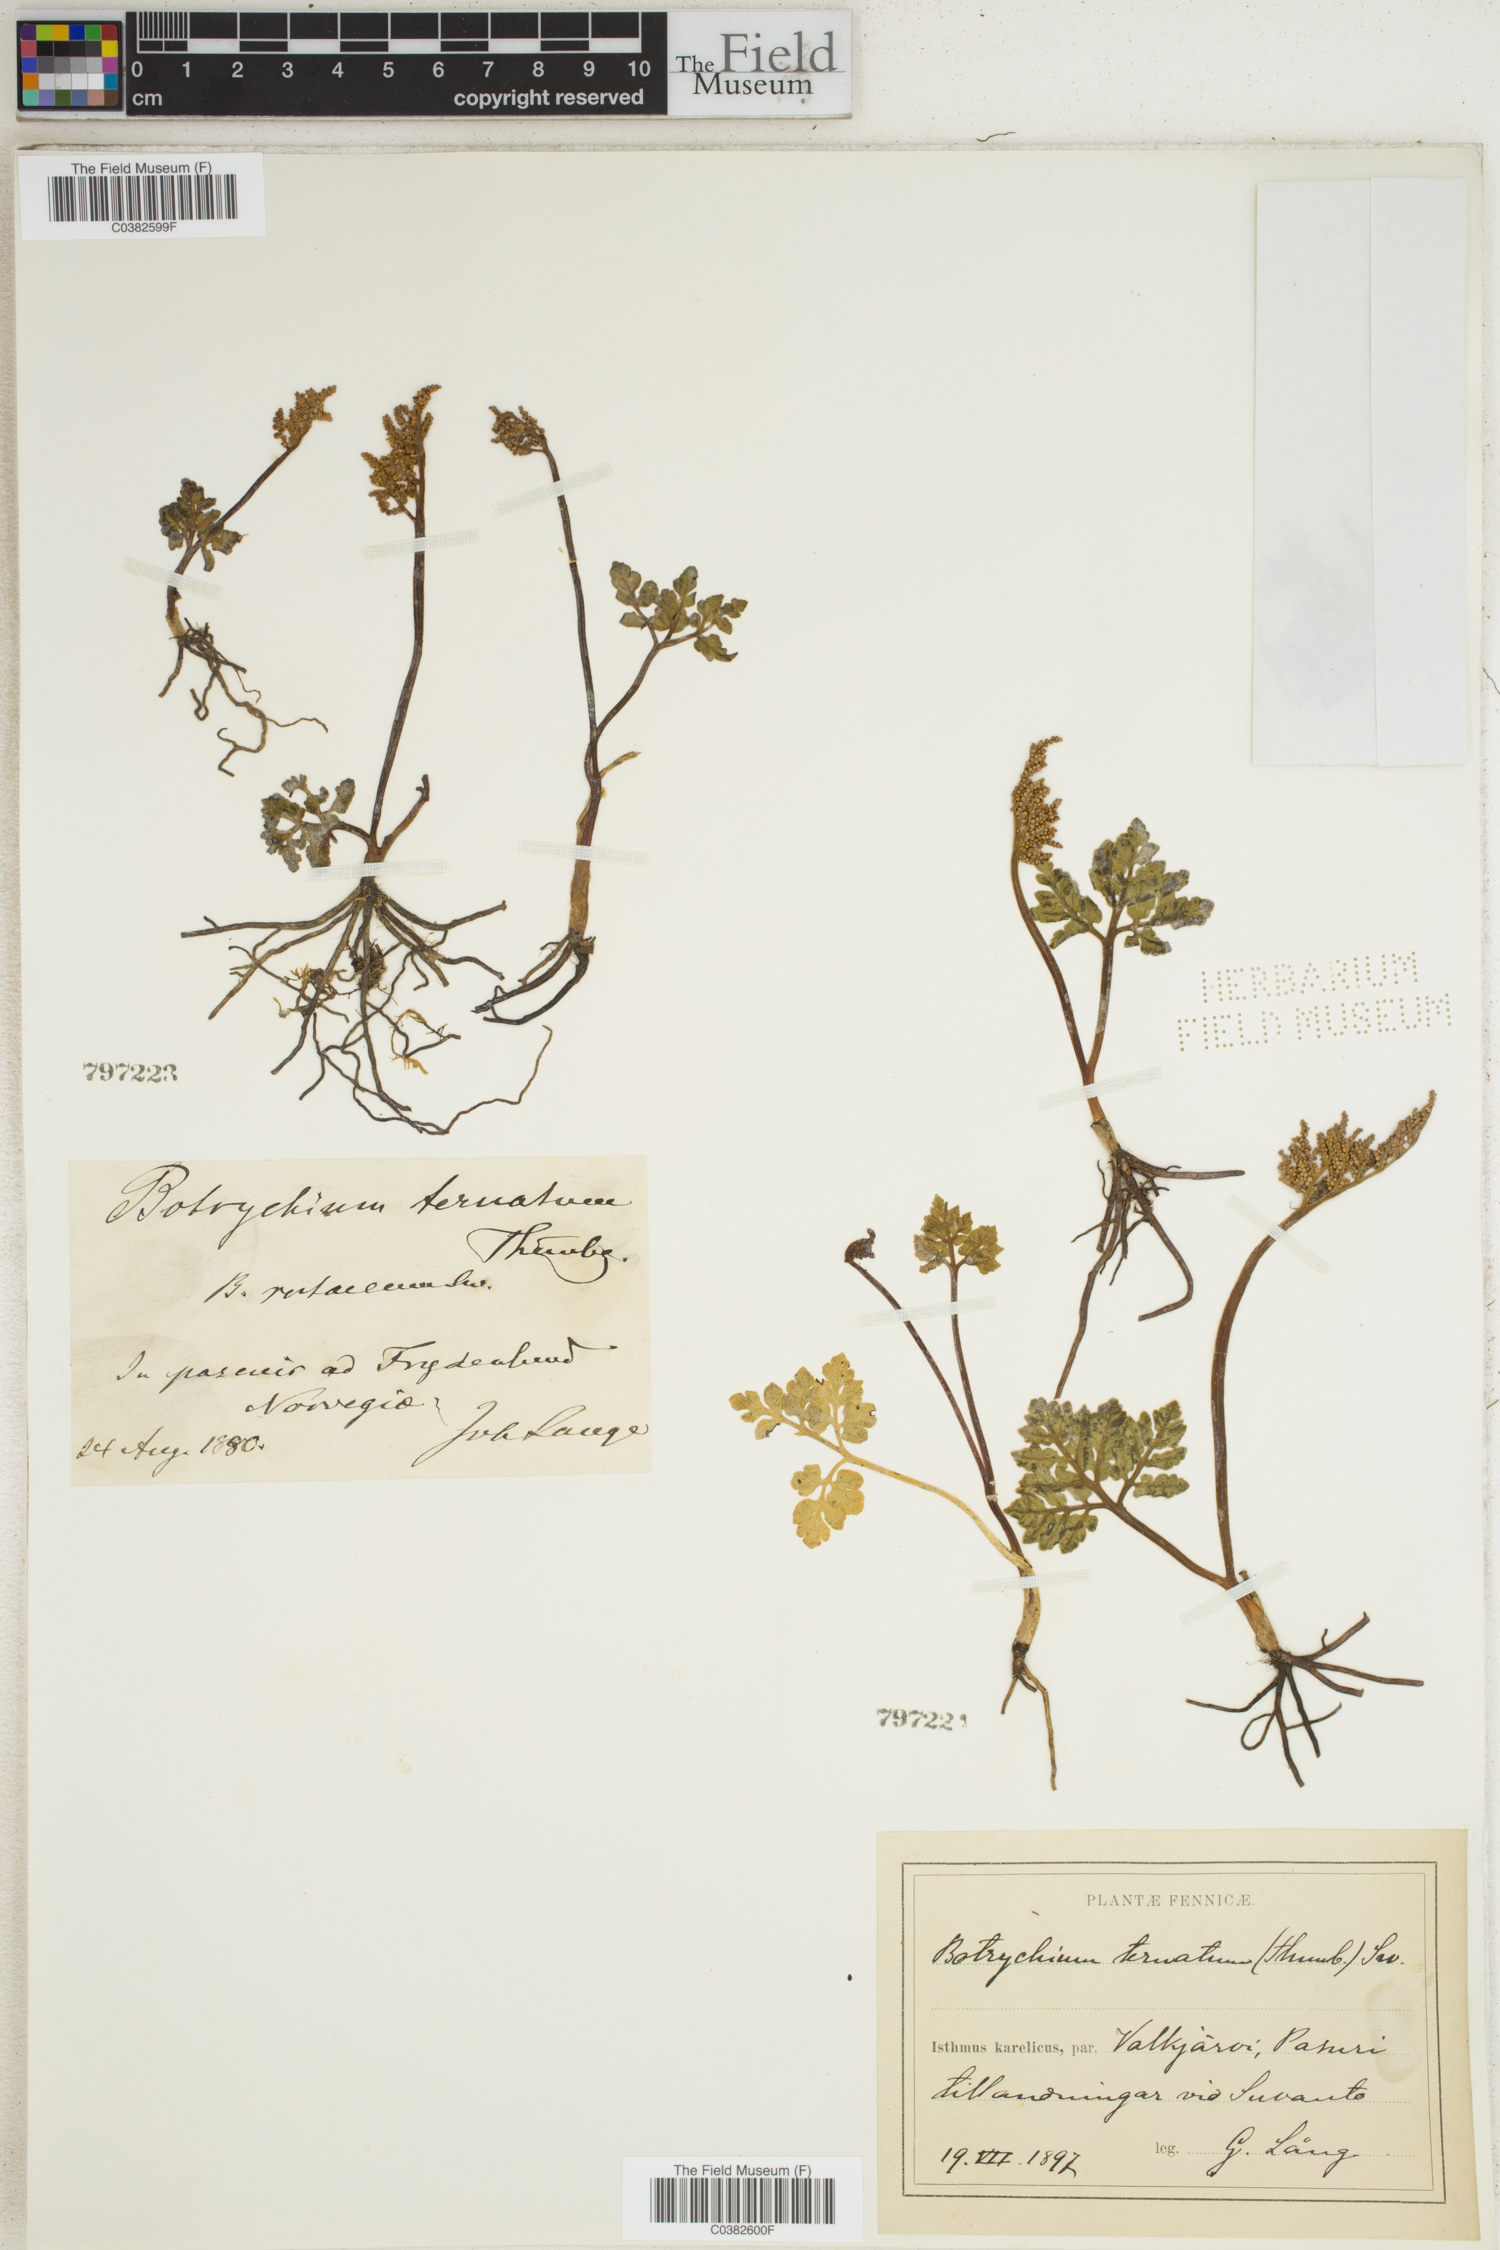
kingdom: Plantae
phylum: Tracheophyta
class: Polypodiopsida
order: Ophioglossales
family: Ophioglossaceae
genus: Sceptridium
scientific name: Sceptridium ternatum
